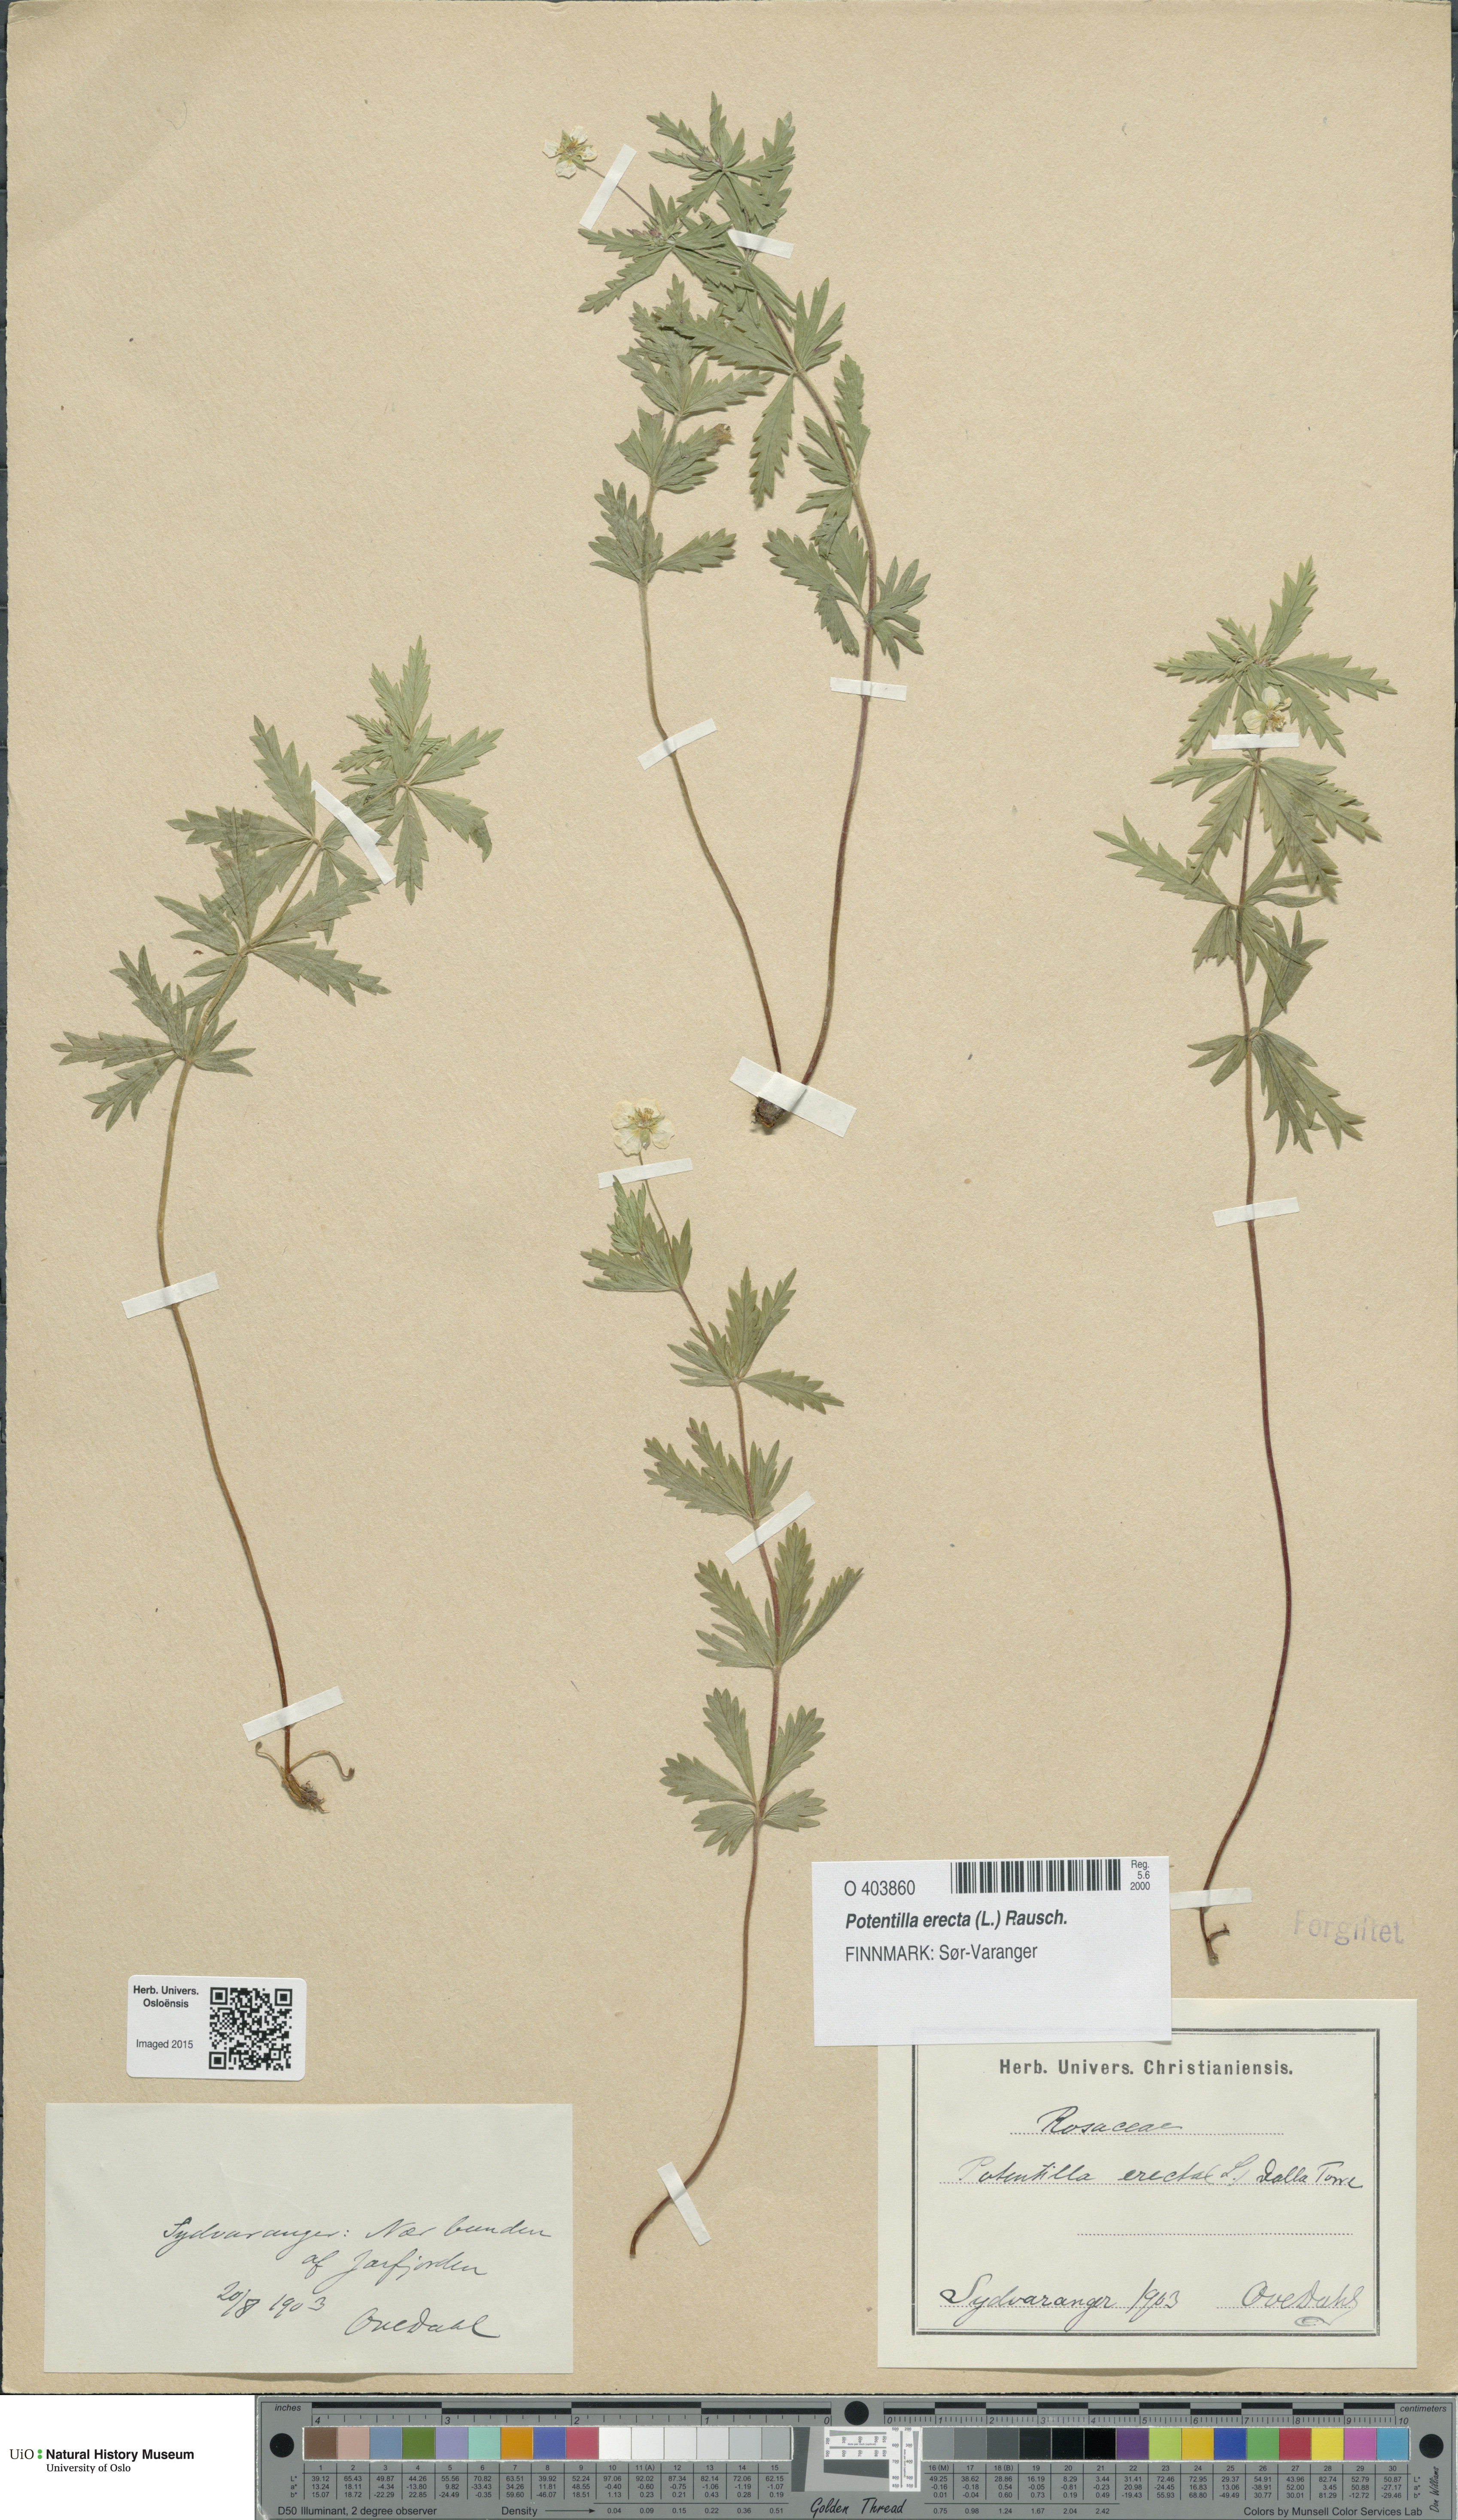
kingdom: Plantae
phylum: Tracheophyta
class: Magnoliopsida
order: Rosales
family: Rosaceae
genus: Potentilla
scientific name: Potentilla erecta
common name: Tormentil
